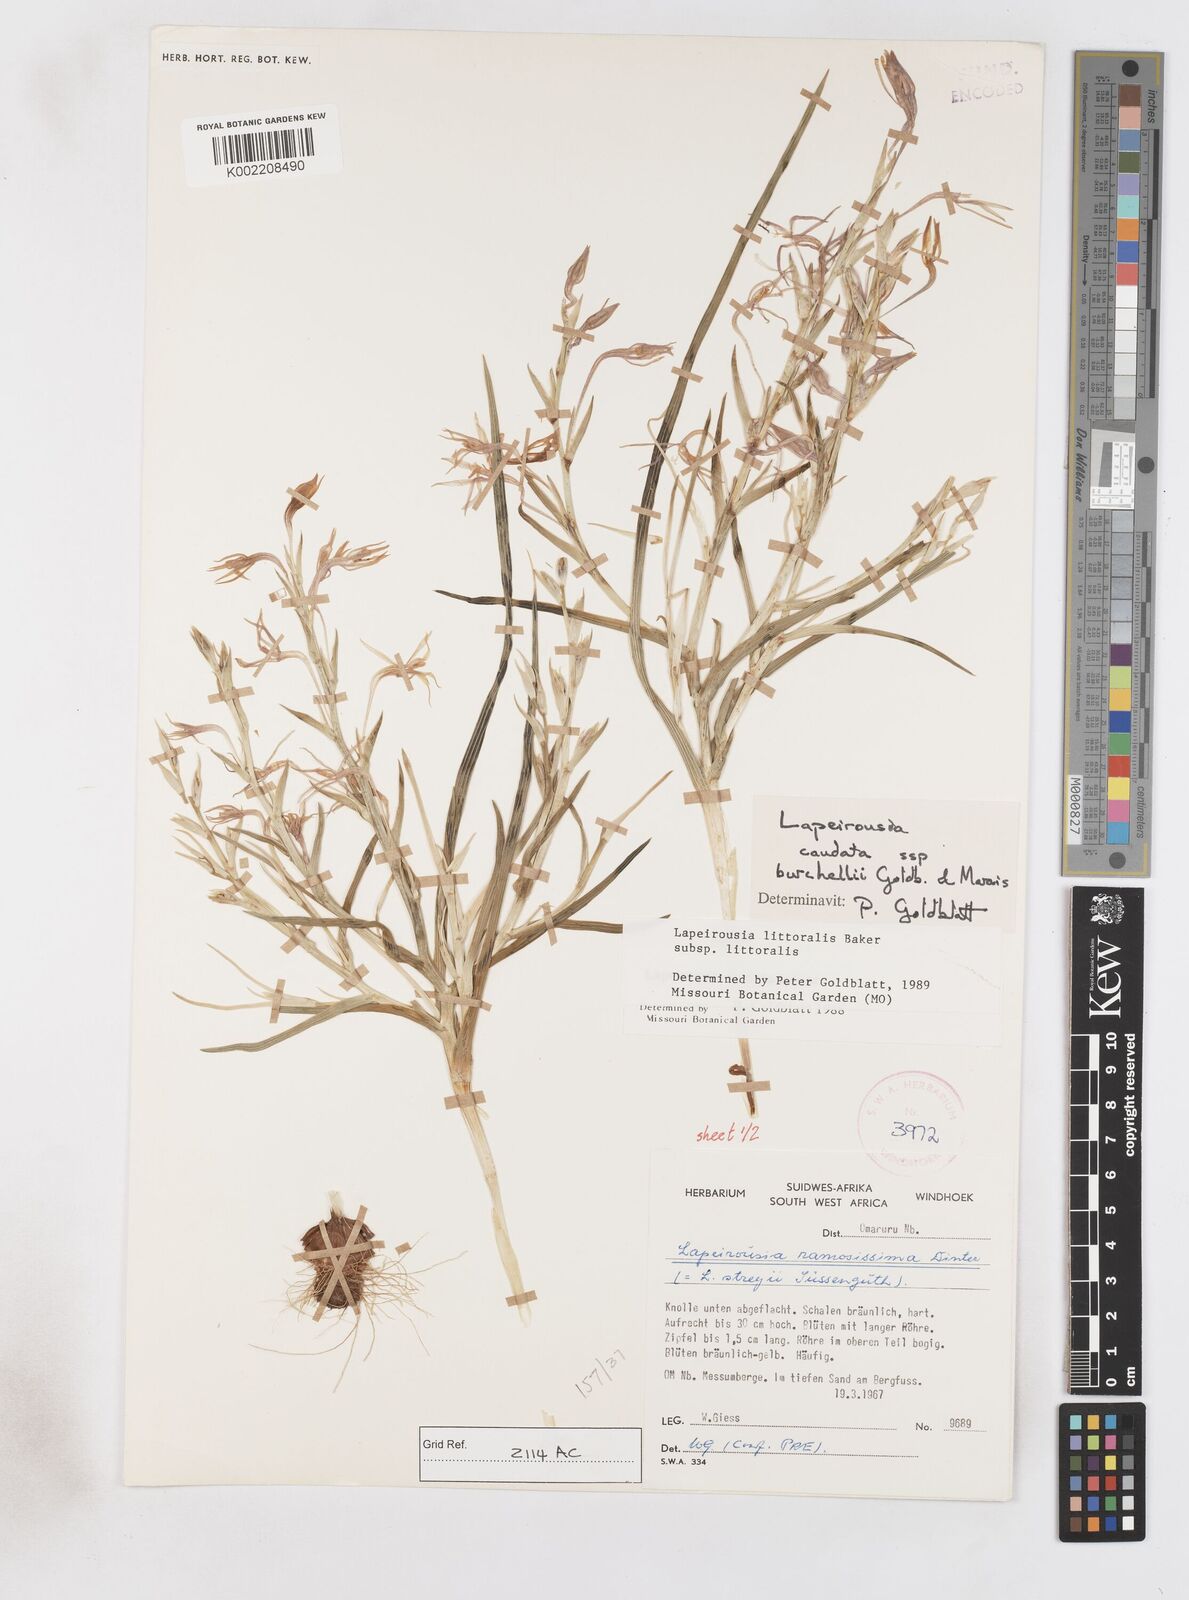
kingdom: Plantae
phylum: Tracheophyta
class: Liliopsida
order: Asparagales
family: Iridaceae
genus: Lapeirousia
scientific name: Lapeirousia littoralis
